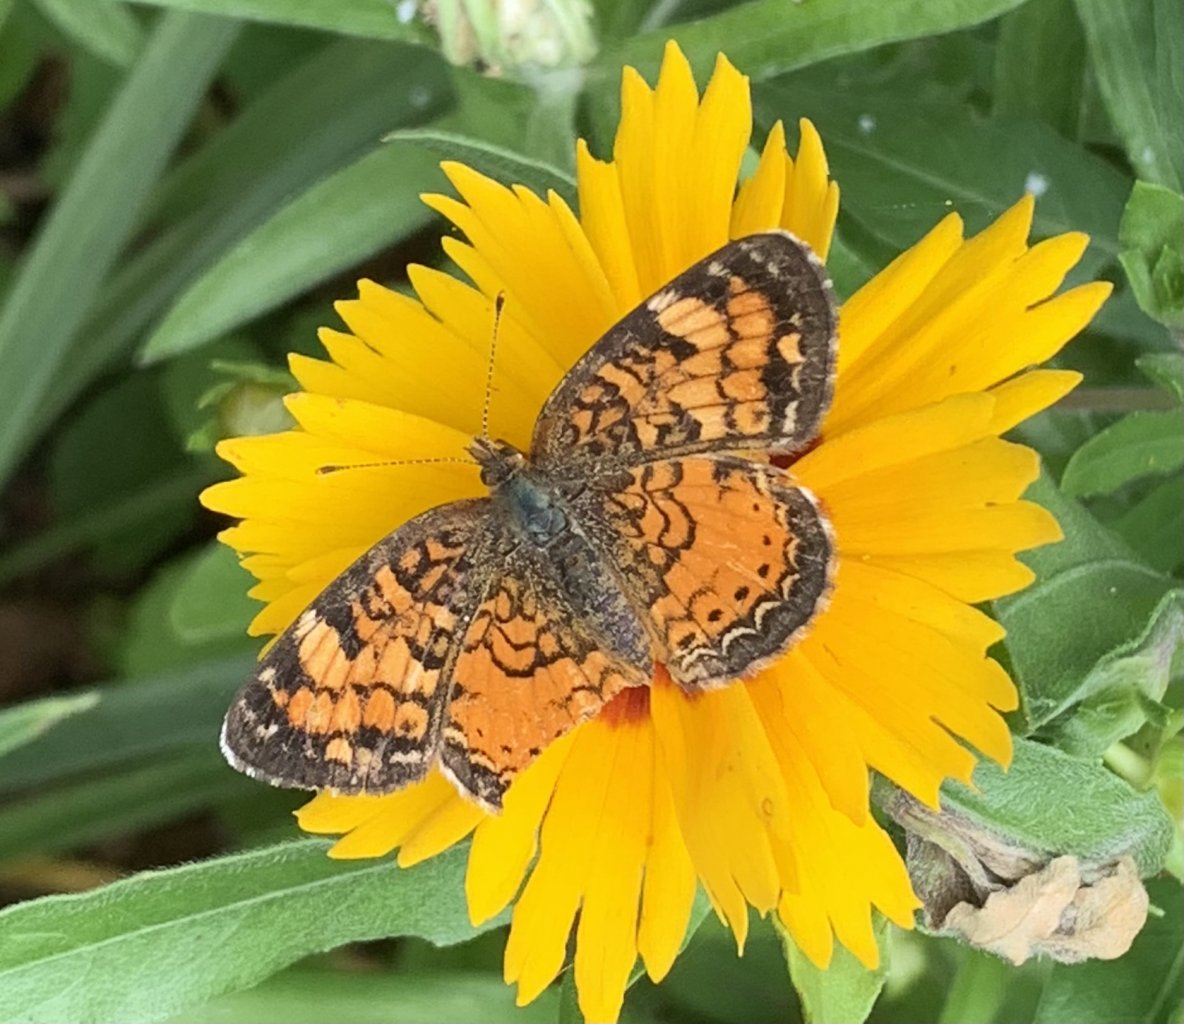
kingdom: Animalia
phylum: Arthropoda
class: Insecta
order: Lepidoptera
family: Nymphalidae
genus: Phyciodes
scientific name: Phyciodes tharos
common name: Northern Crescent
